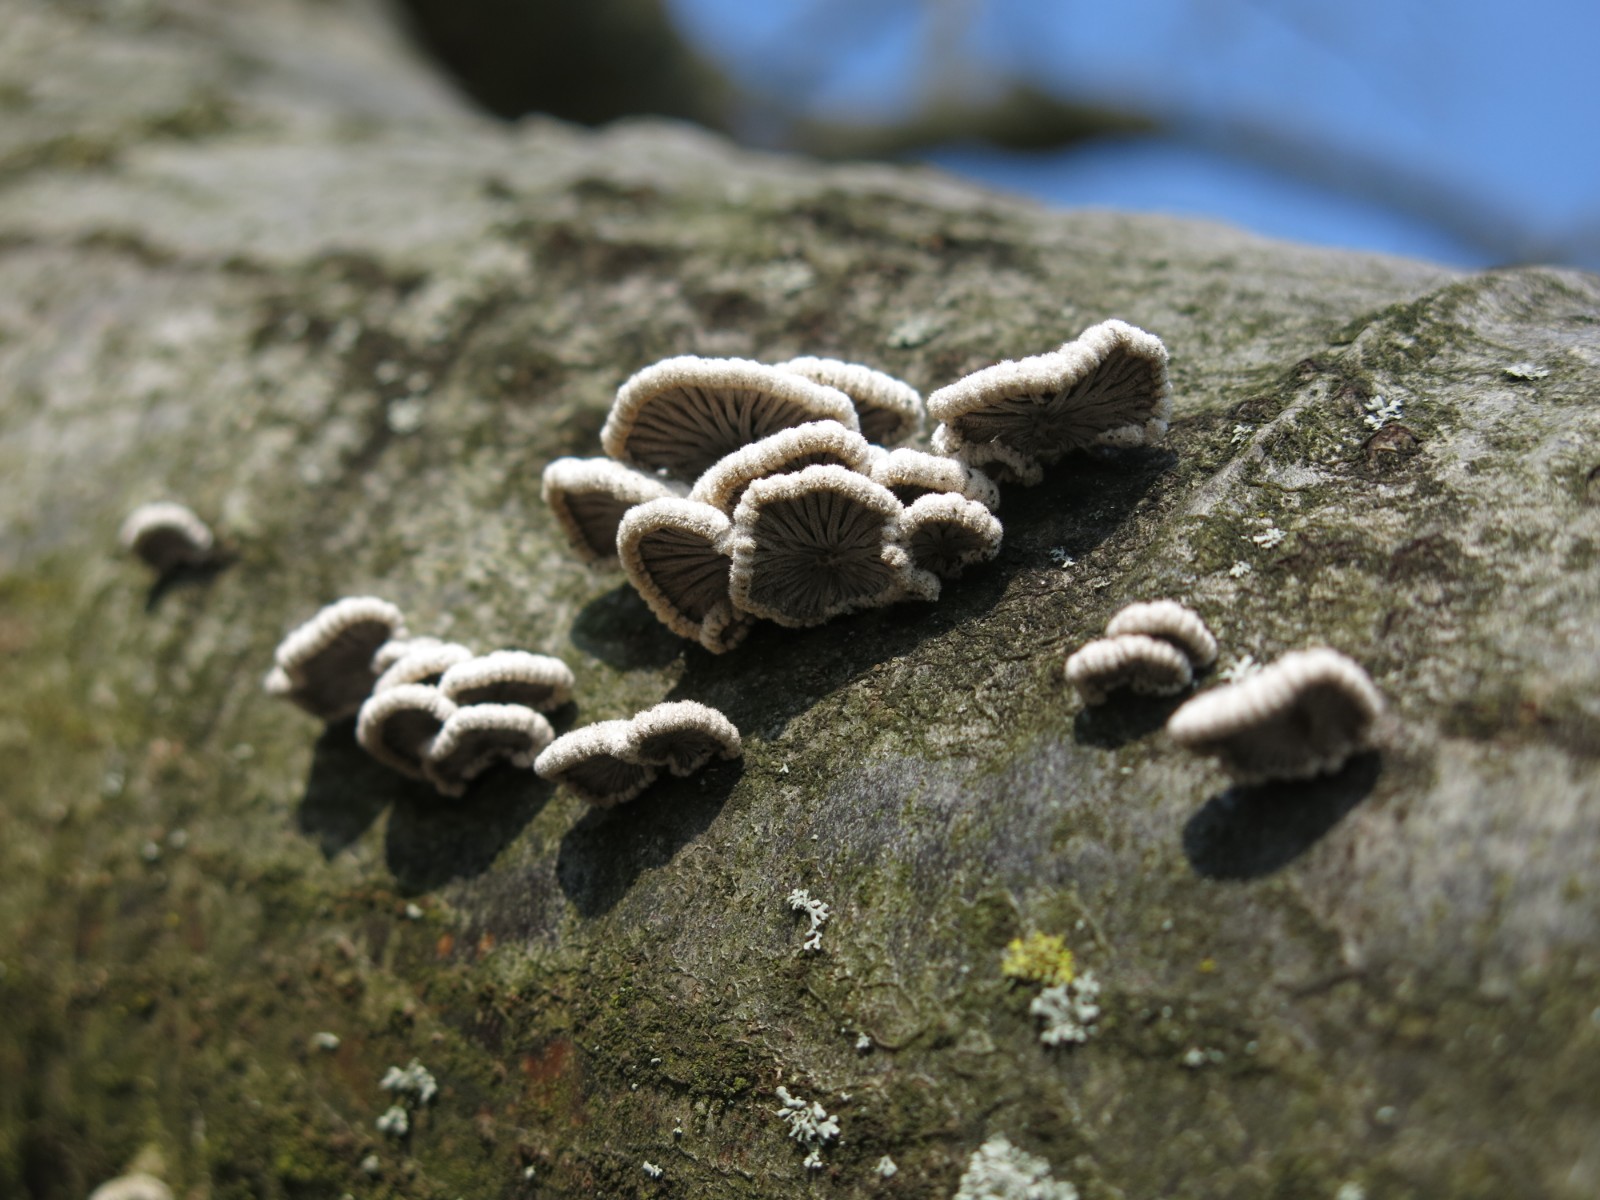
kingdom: Fungi
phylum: Basidiomycota
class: Agaricomycetes
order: Agaricales
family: Schizophyllaceae
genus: Schizophyllum
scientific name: Schizophyllum commune
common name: kløvblad
